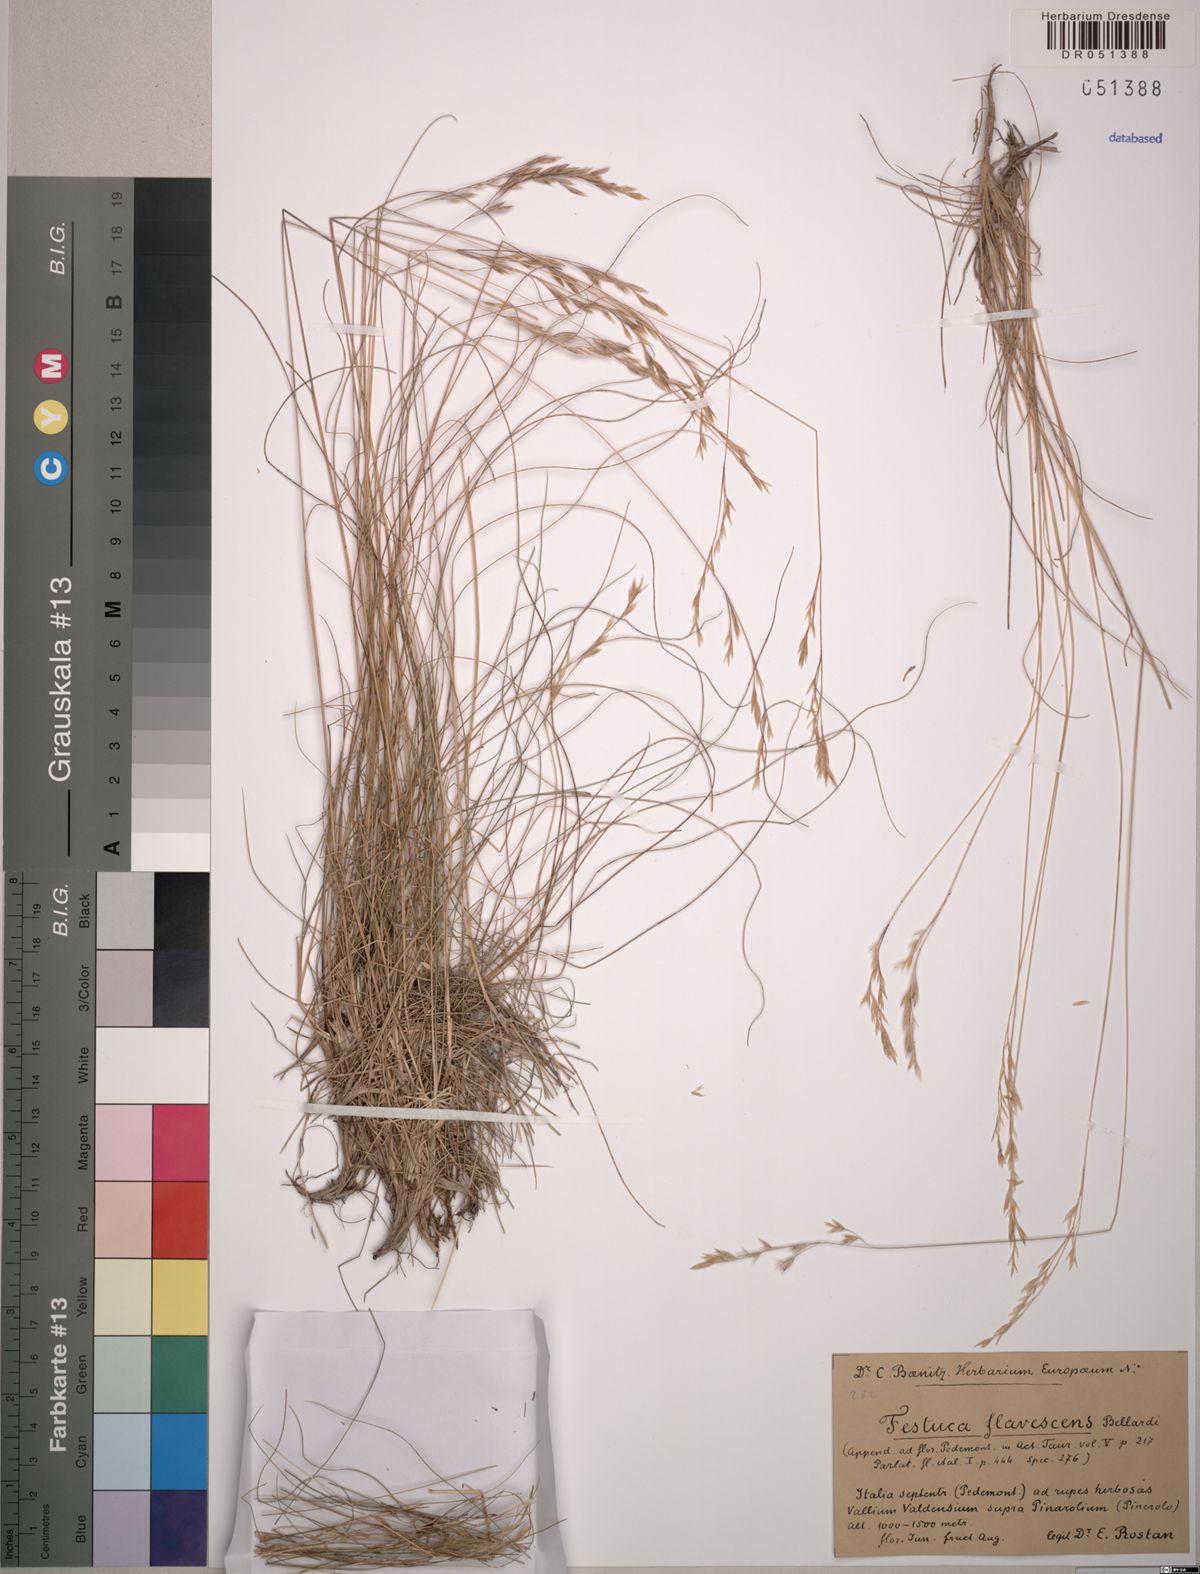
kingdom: Plantae
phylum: Tracheophyta
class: Liliopsida
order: Poales
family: Poaceae
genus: Festuca
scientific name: Festuca flavescens
